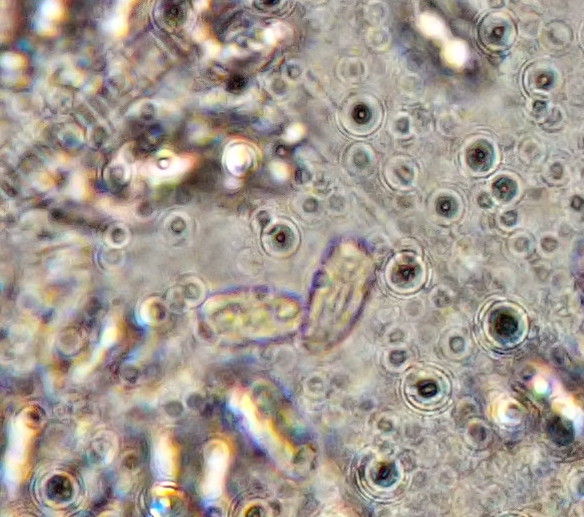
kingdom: Fungi
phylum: Basidiomycota
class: Agaricomycetes
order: Agaricales
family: Agaricaceae
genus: Lepiota
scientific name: Lepiota
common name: parasolhat
